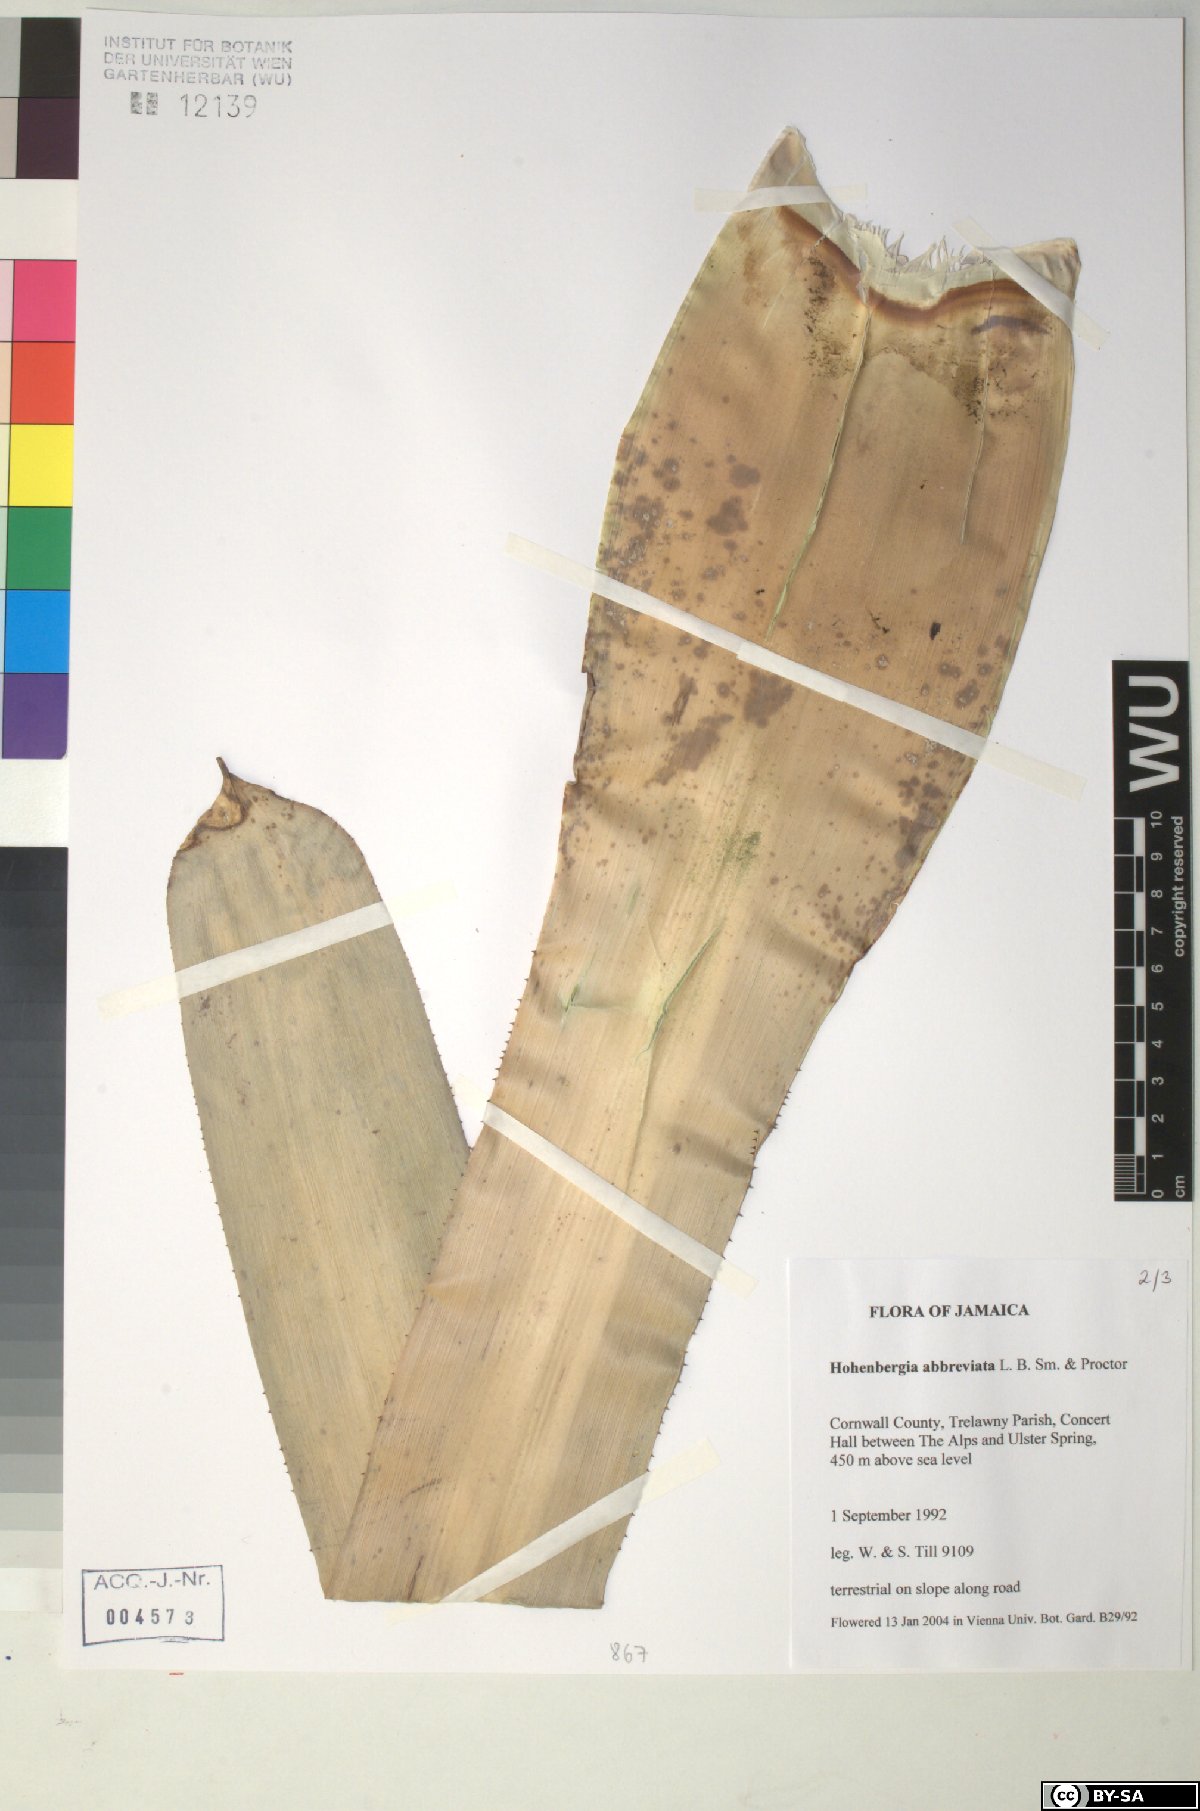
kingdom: Plantae
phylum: Tracheophyta
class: Liliopsida
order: Poales
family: Bromeliaceae
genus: Wittmackia
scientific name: Wittmackia abbreviata
